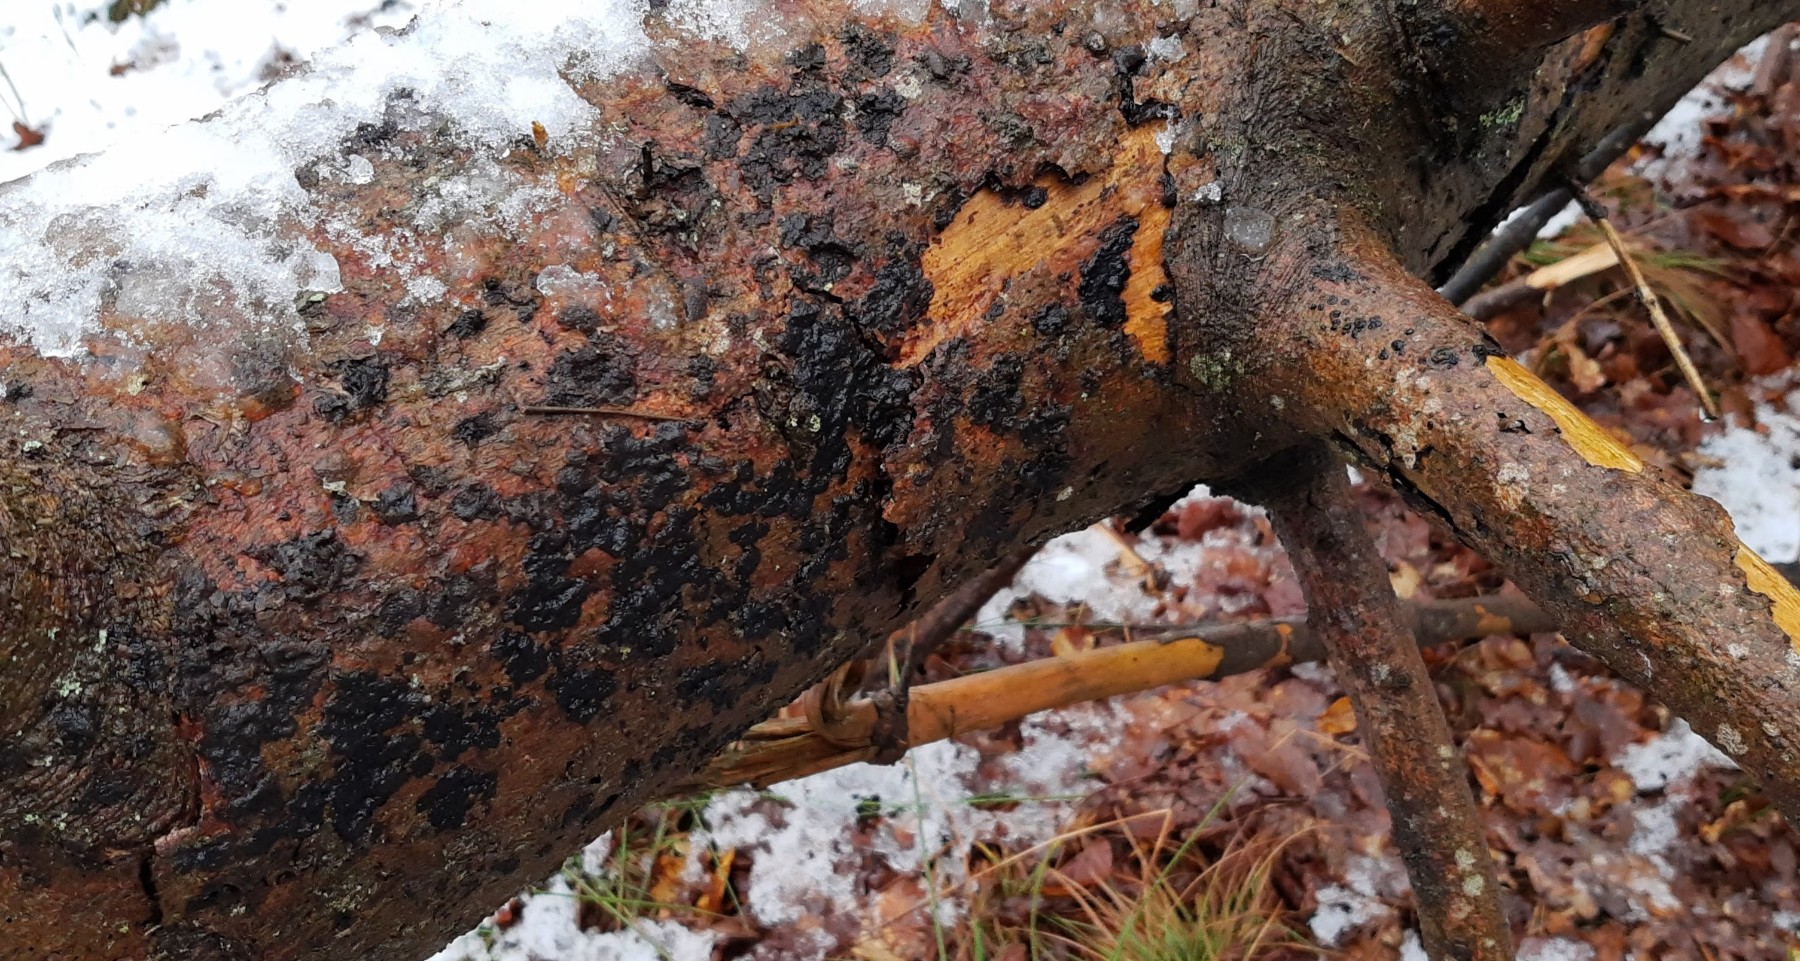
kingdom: Fungi
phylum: Basidiomycota
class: Agaricomycetes
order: Auriculariales
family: Auriculariaceae
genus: Exidia
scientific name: Exidia pithya
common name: gran-bævretop
